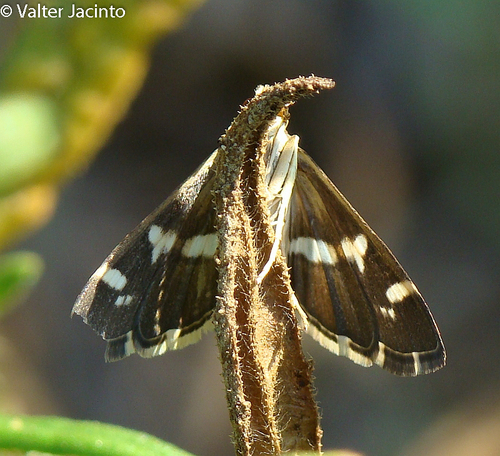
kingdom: Animalia
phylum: Arthropoda
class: Insecta
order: Lepidoptera
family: Crambidae
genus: Spoladea
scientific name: Spoladea recurvalis
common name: Beet webworm moth
